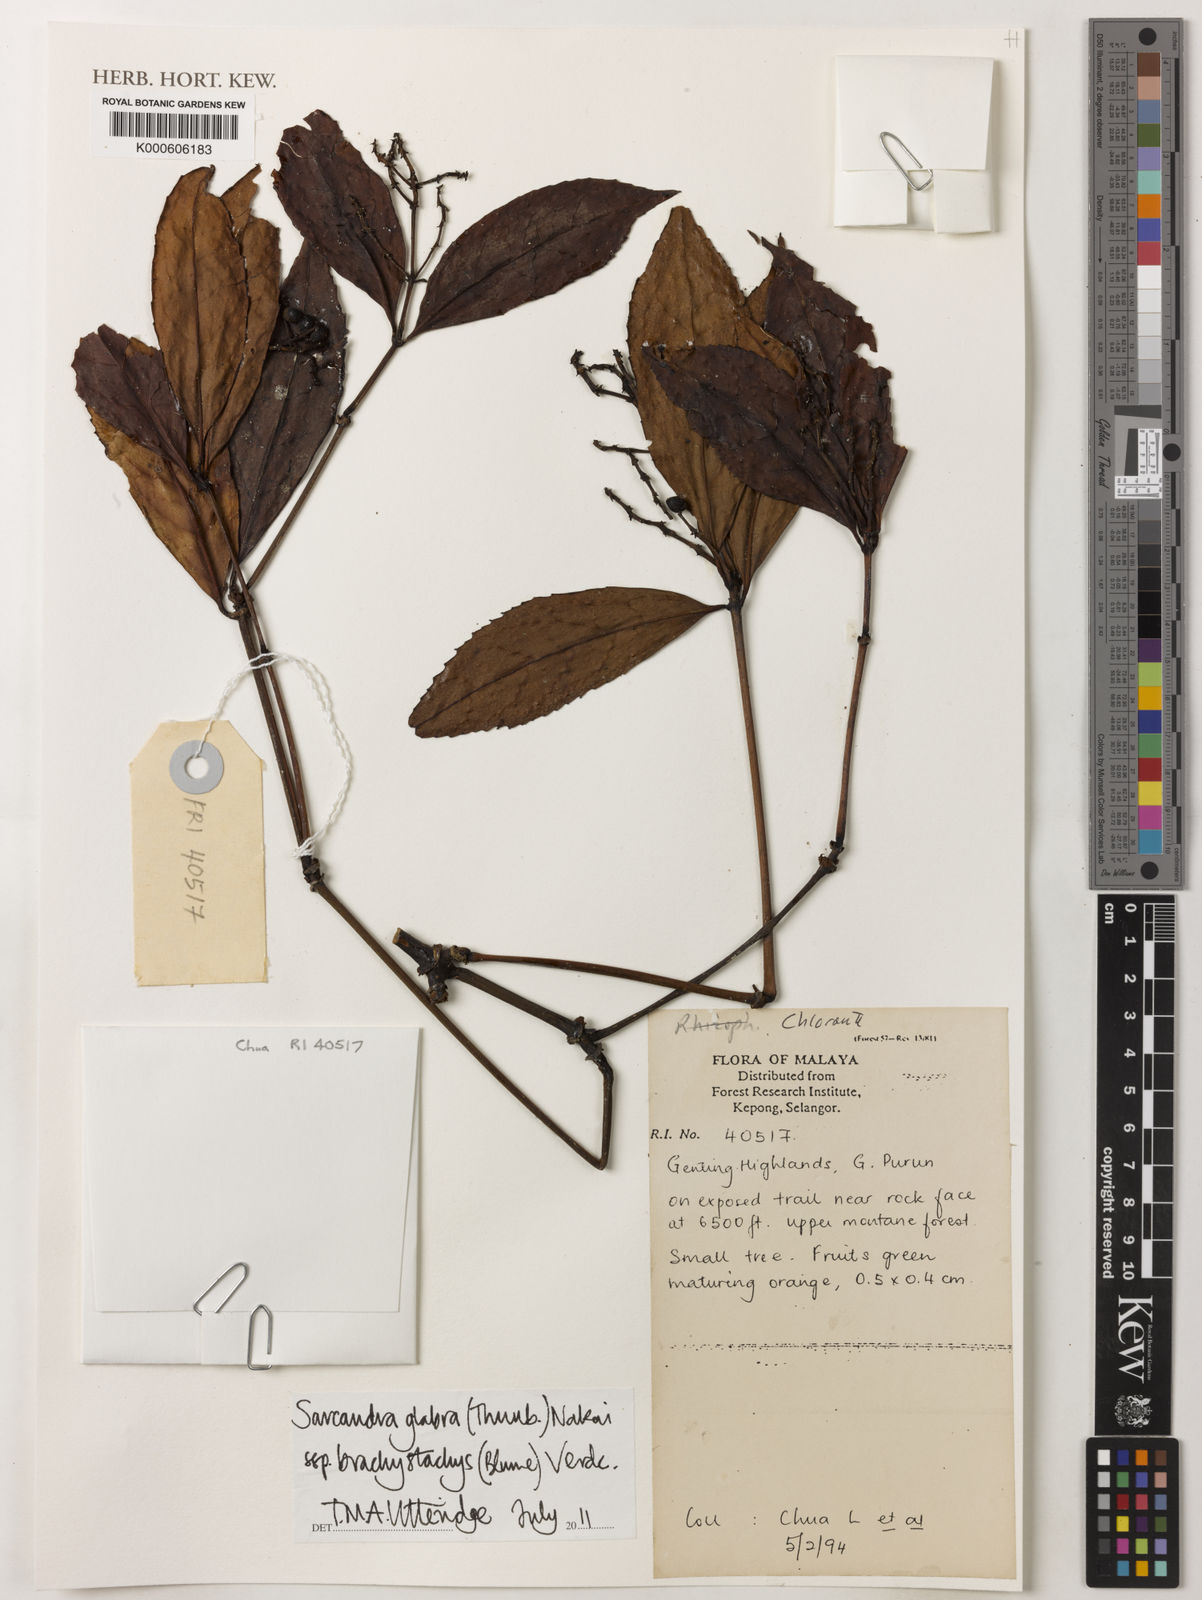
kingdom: Plantae
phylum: Tracheophyta
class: Magnoliopsida
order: Chloranthales
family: Chloranthaceae
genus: Sarcandra
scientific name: Sarcandra glabra
